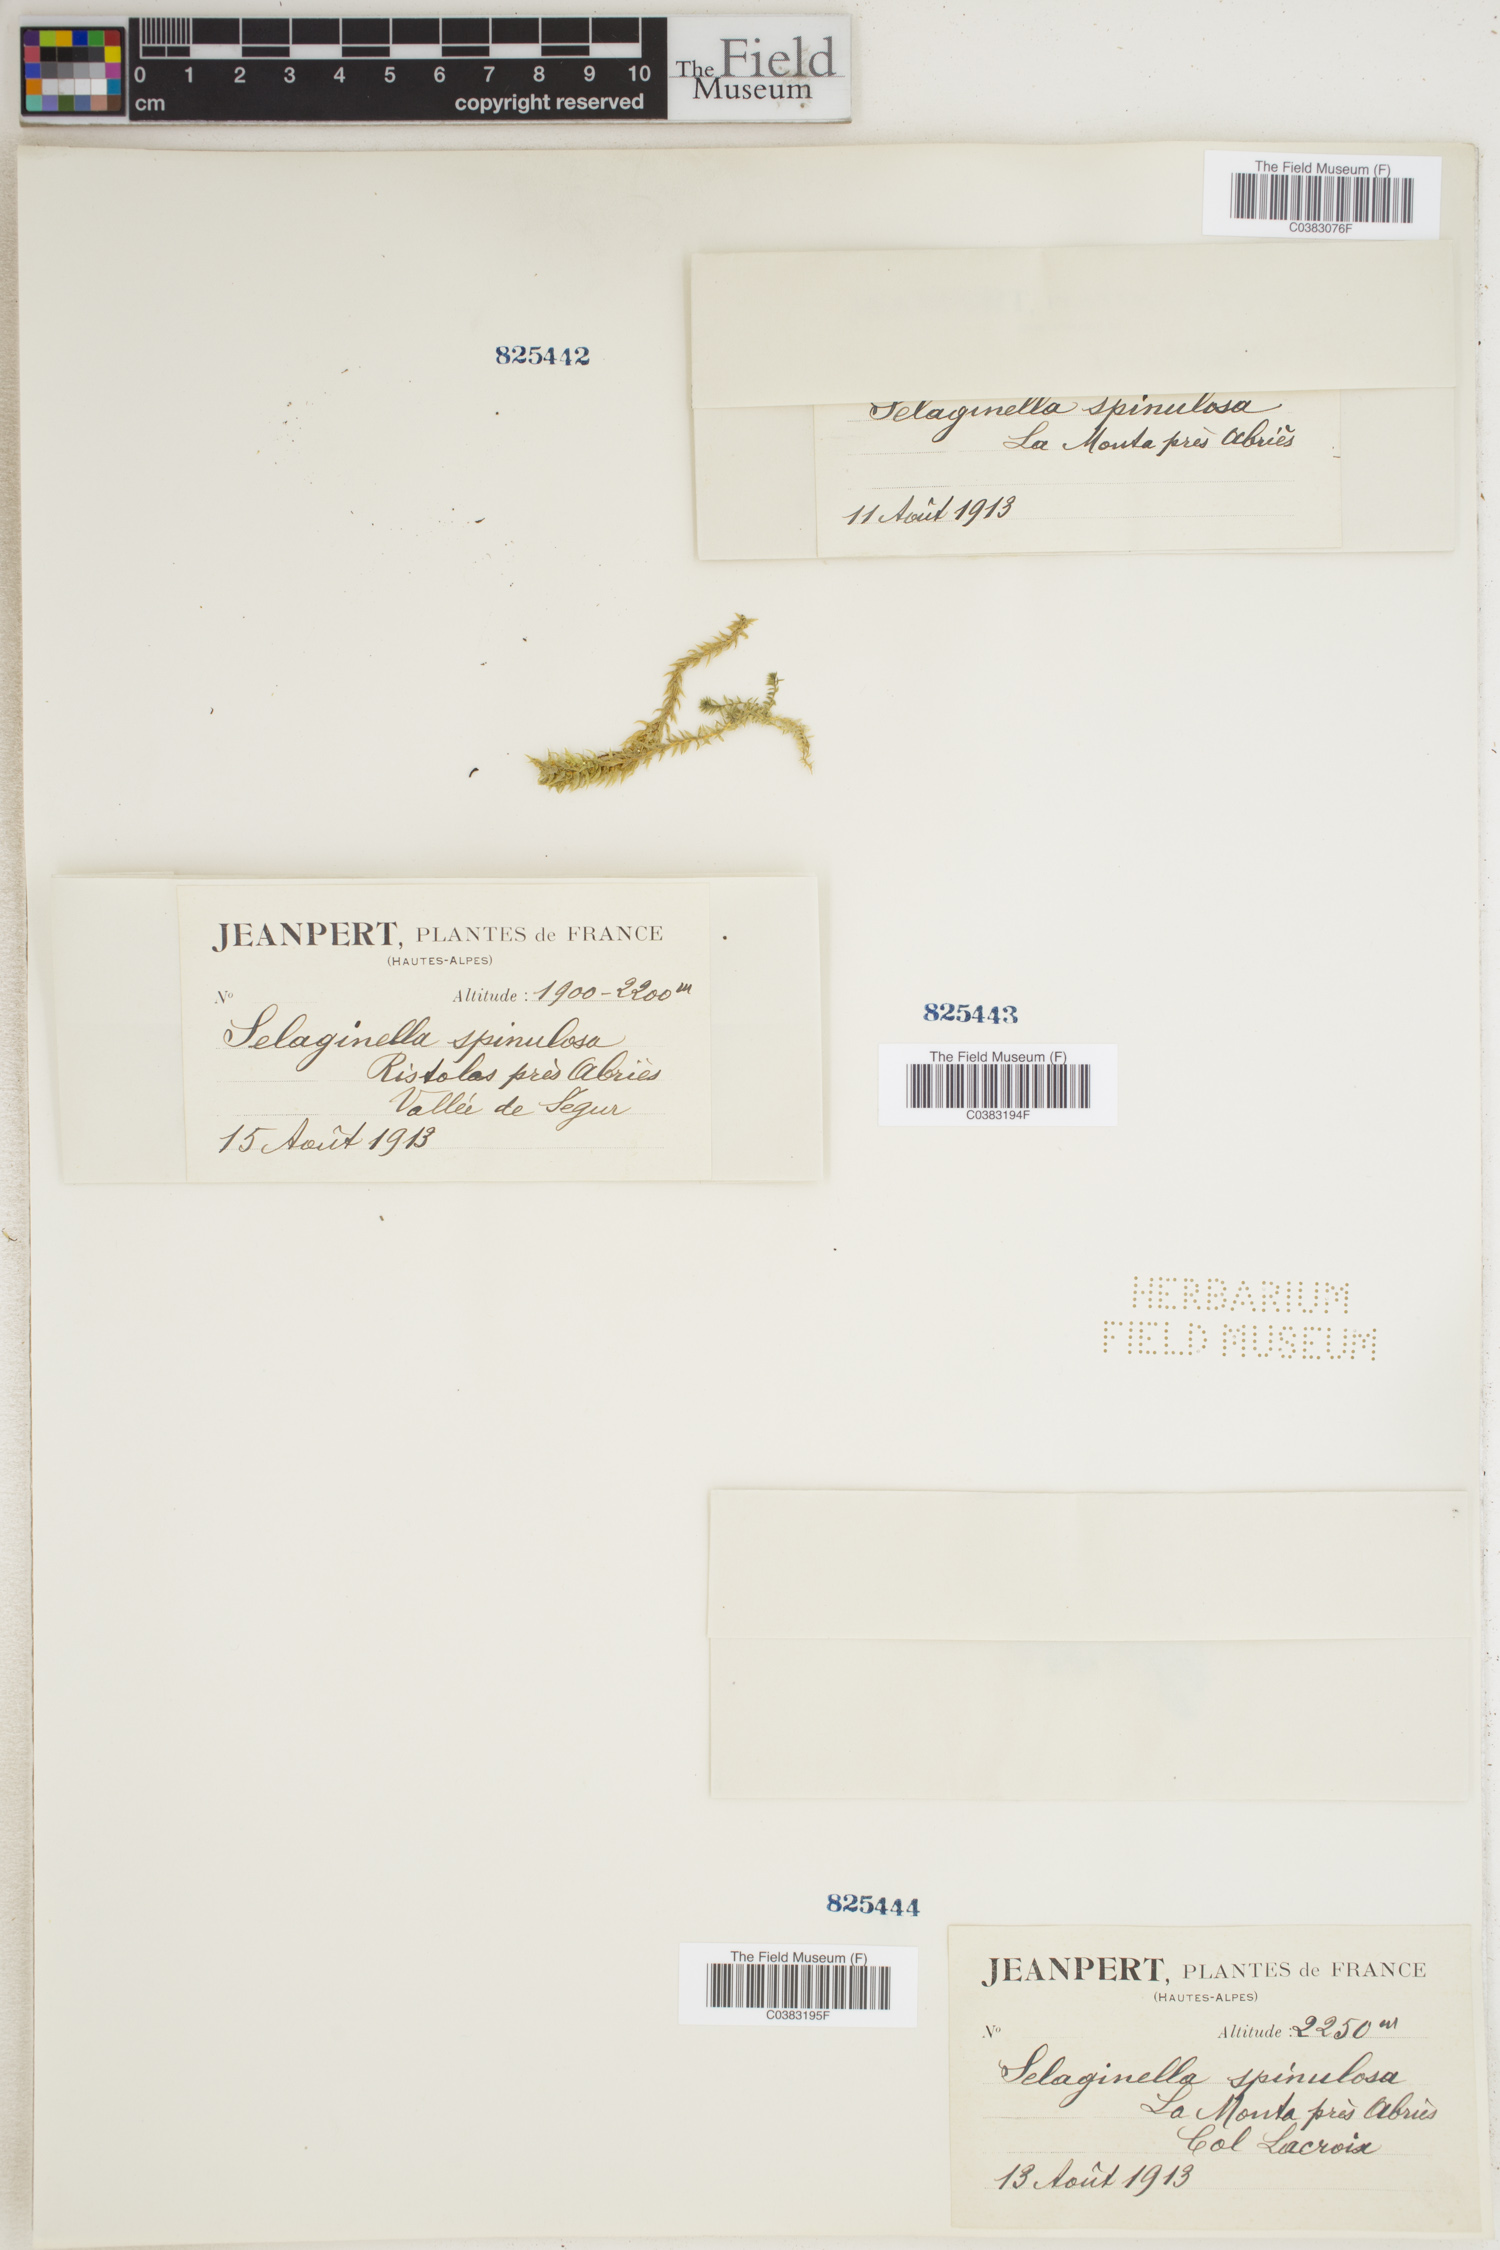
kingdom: Plantae
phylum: Tracheophyta
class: Lycopodiopsida
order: Selaginellales
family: Selaginellaceae
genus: Selaginella
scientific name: Selaginella selaginoides
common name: Prickly mountain-moss
